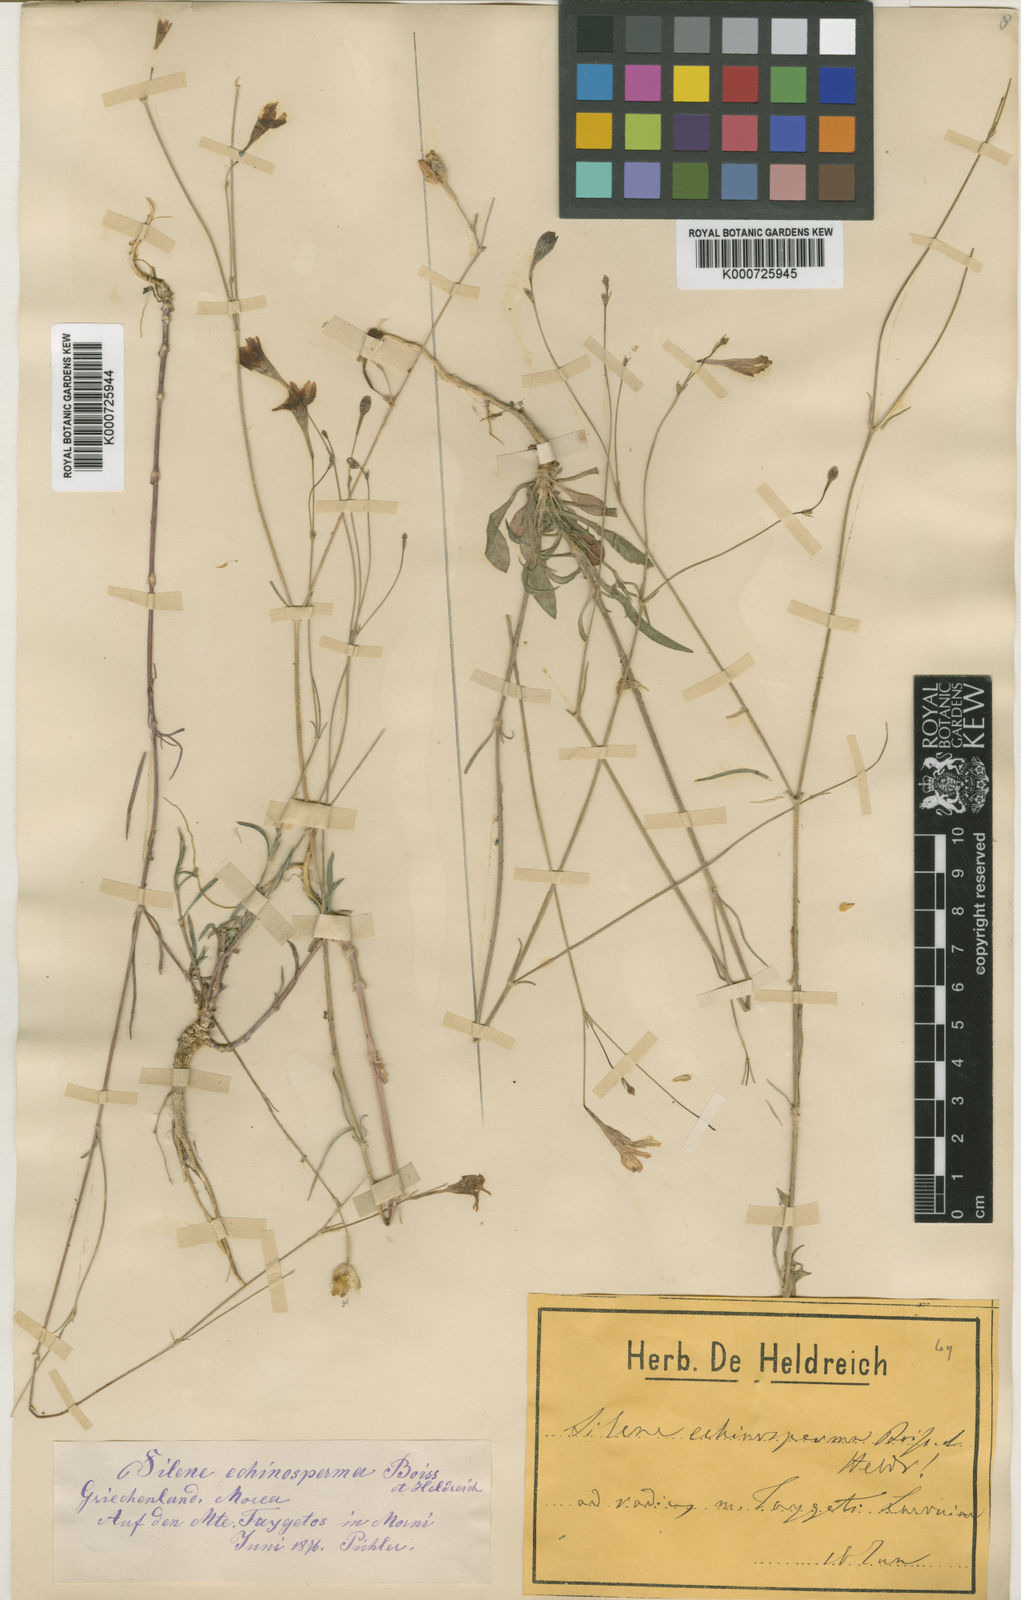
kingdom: Plantae
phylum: Tracheophyta
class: Magnoliopsida
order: Caryophyllales
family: Caryophyllaceae
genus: Silene
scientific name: Silene echinosperma
